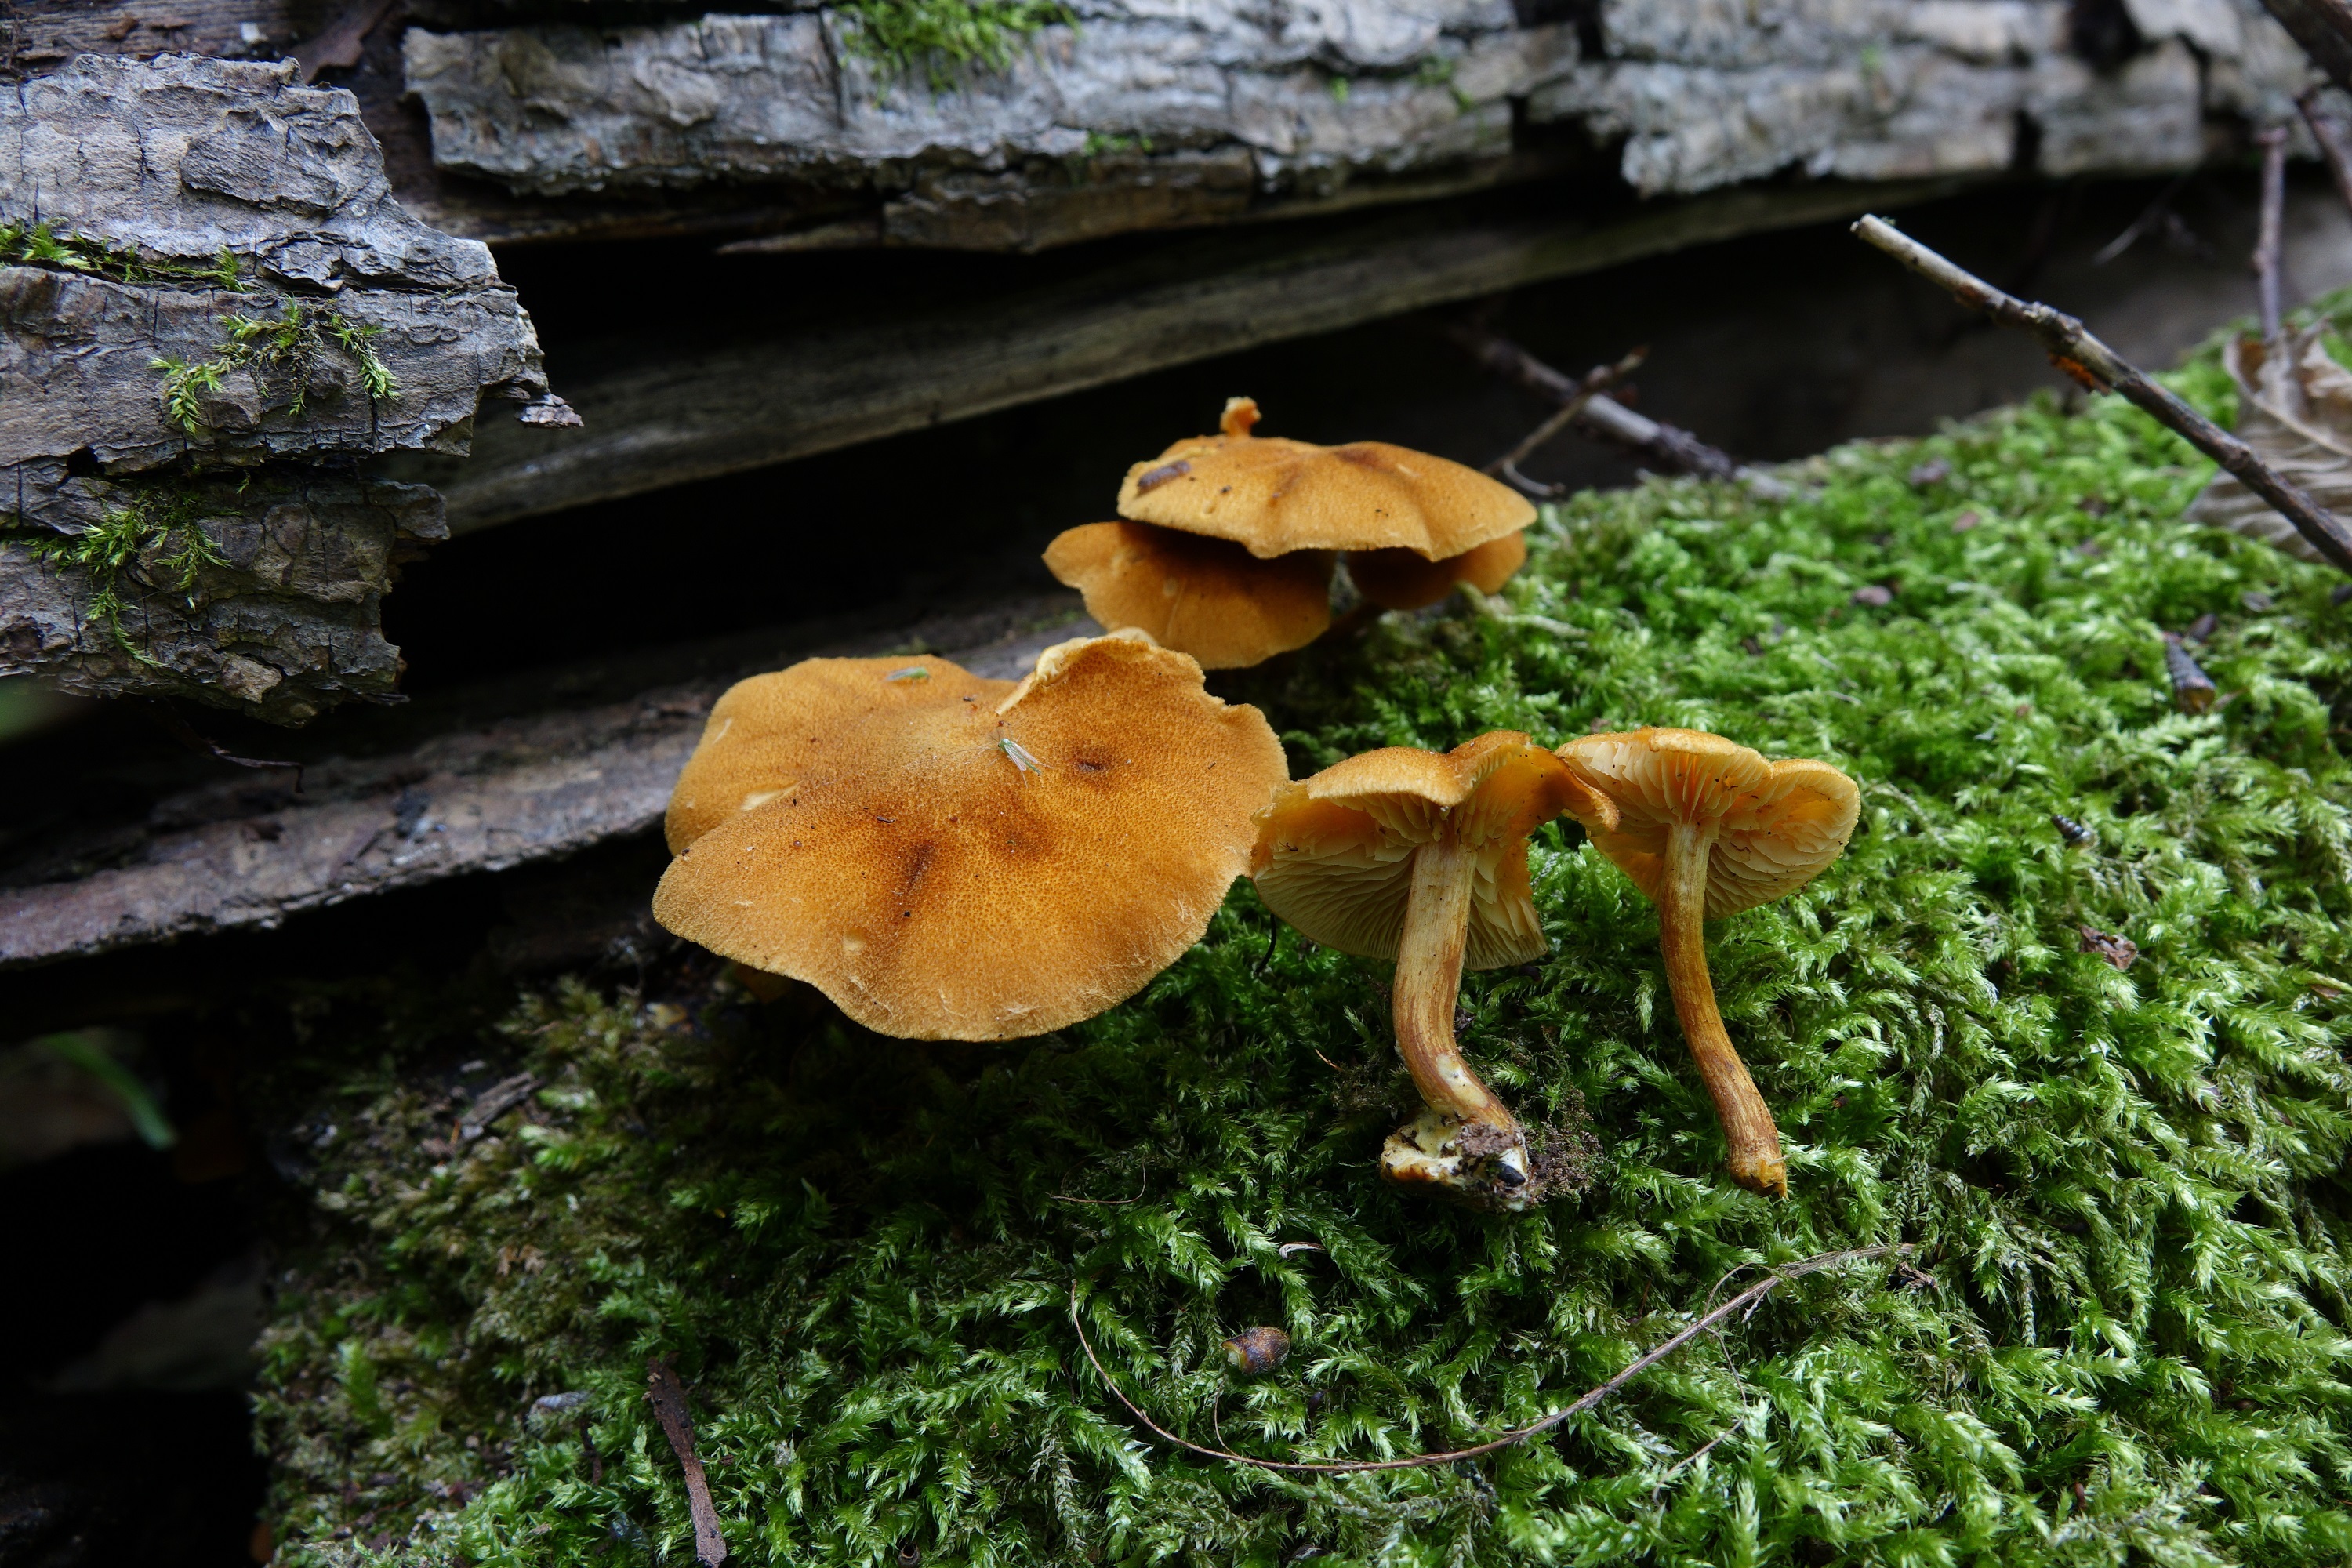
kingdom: Fungi
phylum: Basidiomycota
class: Agaricomycetes
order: Agaricales
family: Tubariaceae
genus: Flammulaster
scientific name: Flammulaster
